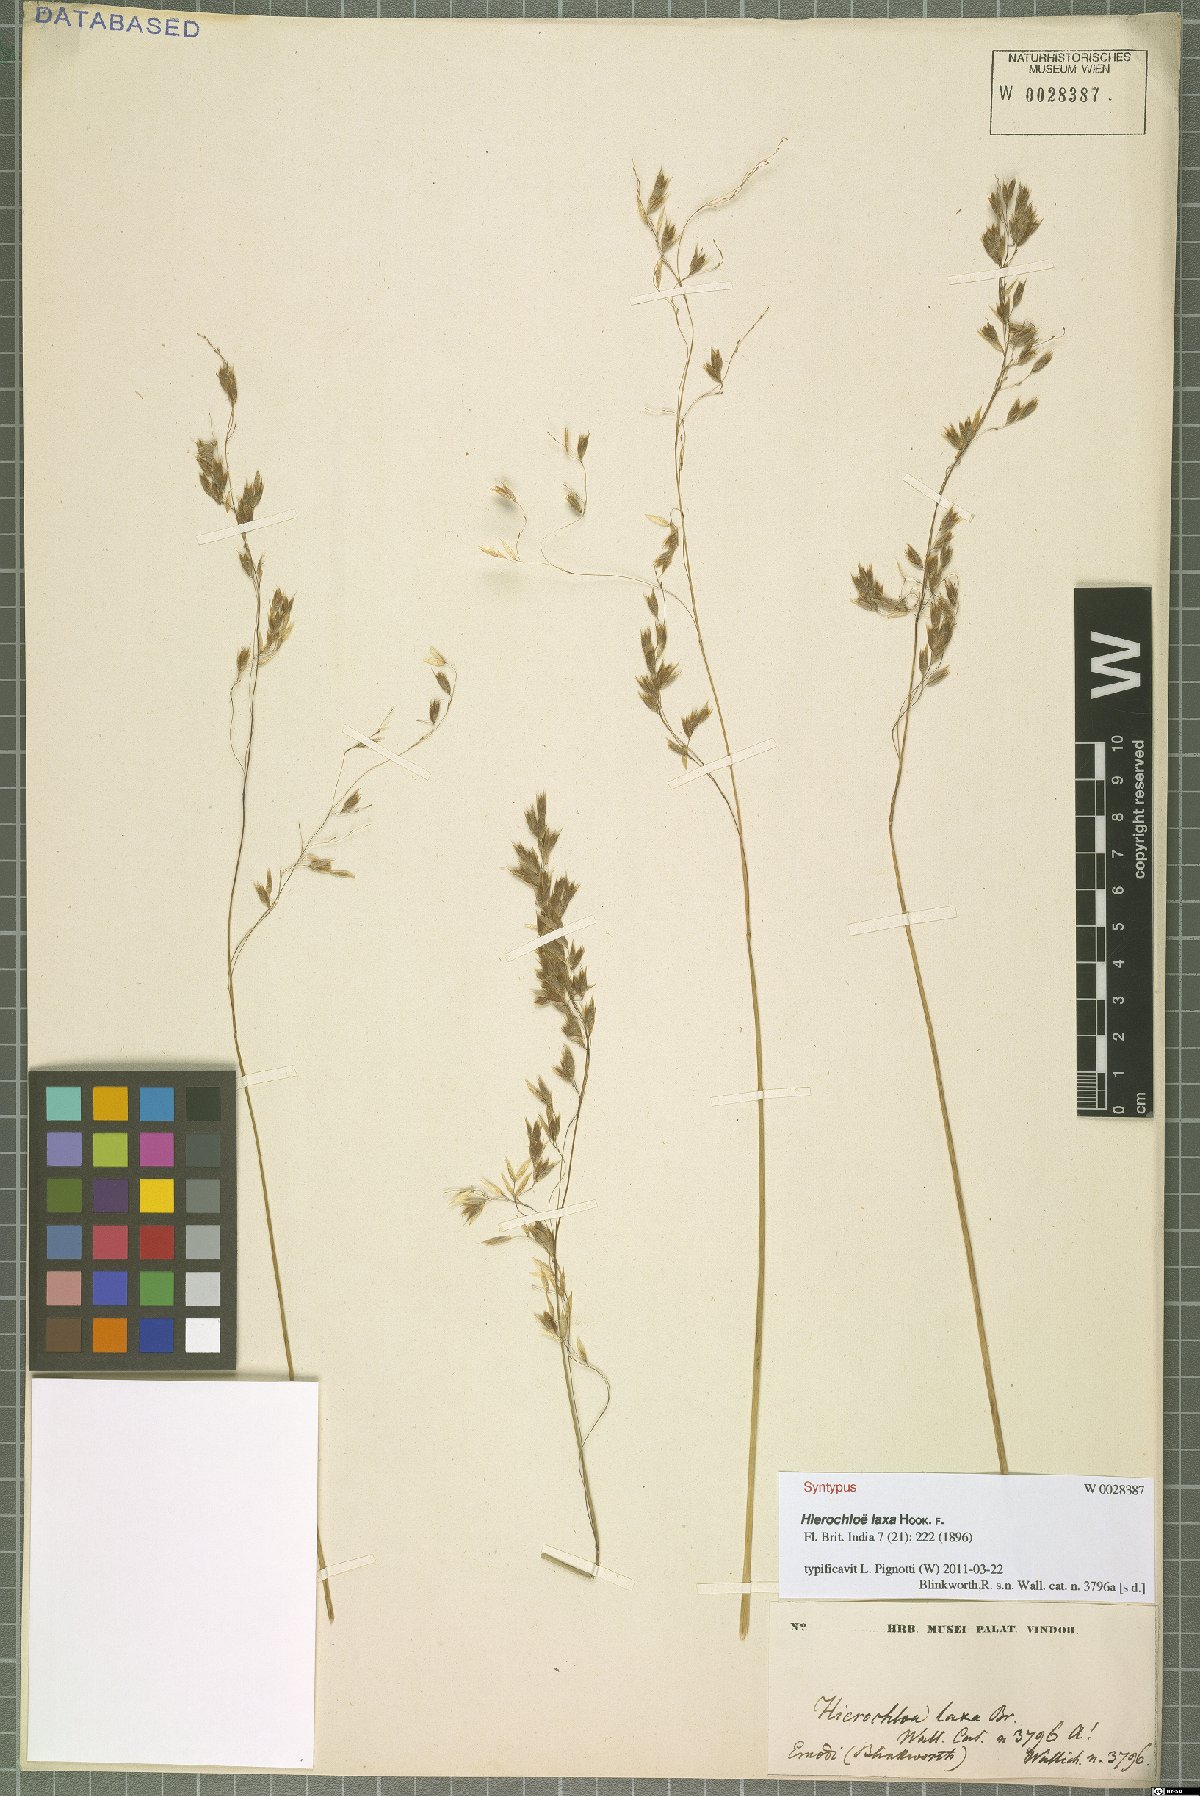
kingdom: Plantae
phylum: Tracheophyta
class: Liliopsida
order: Poales
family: Poaceae
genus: Anthoxanthum
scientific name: Anthoxanthum laxum
